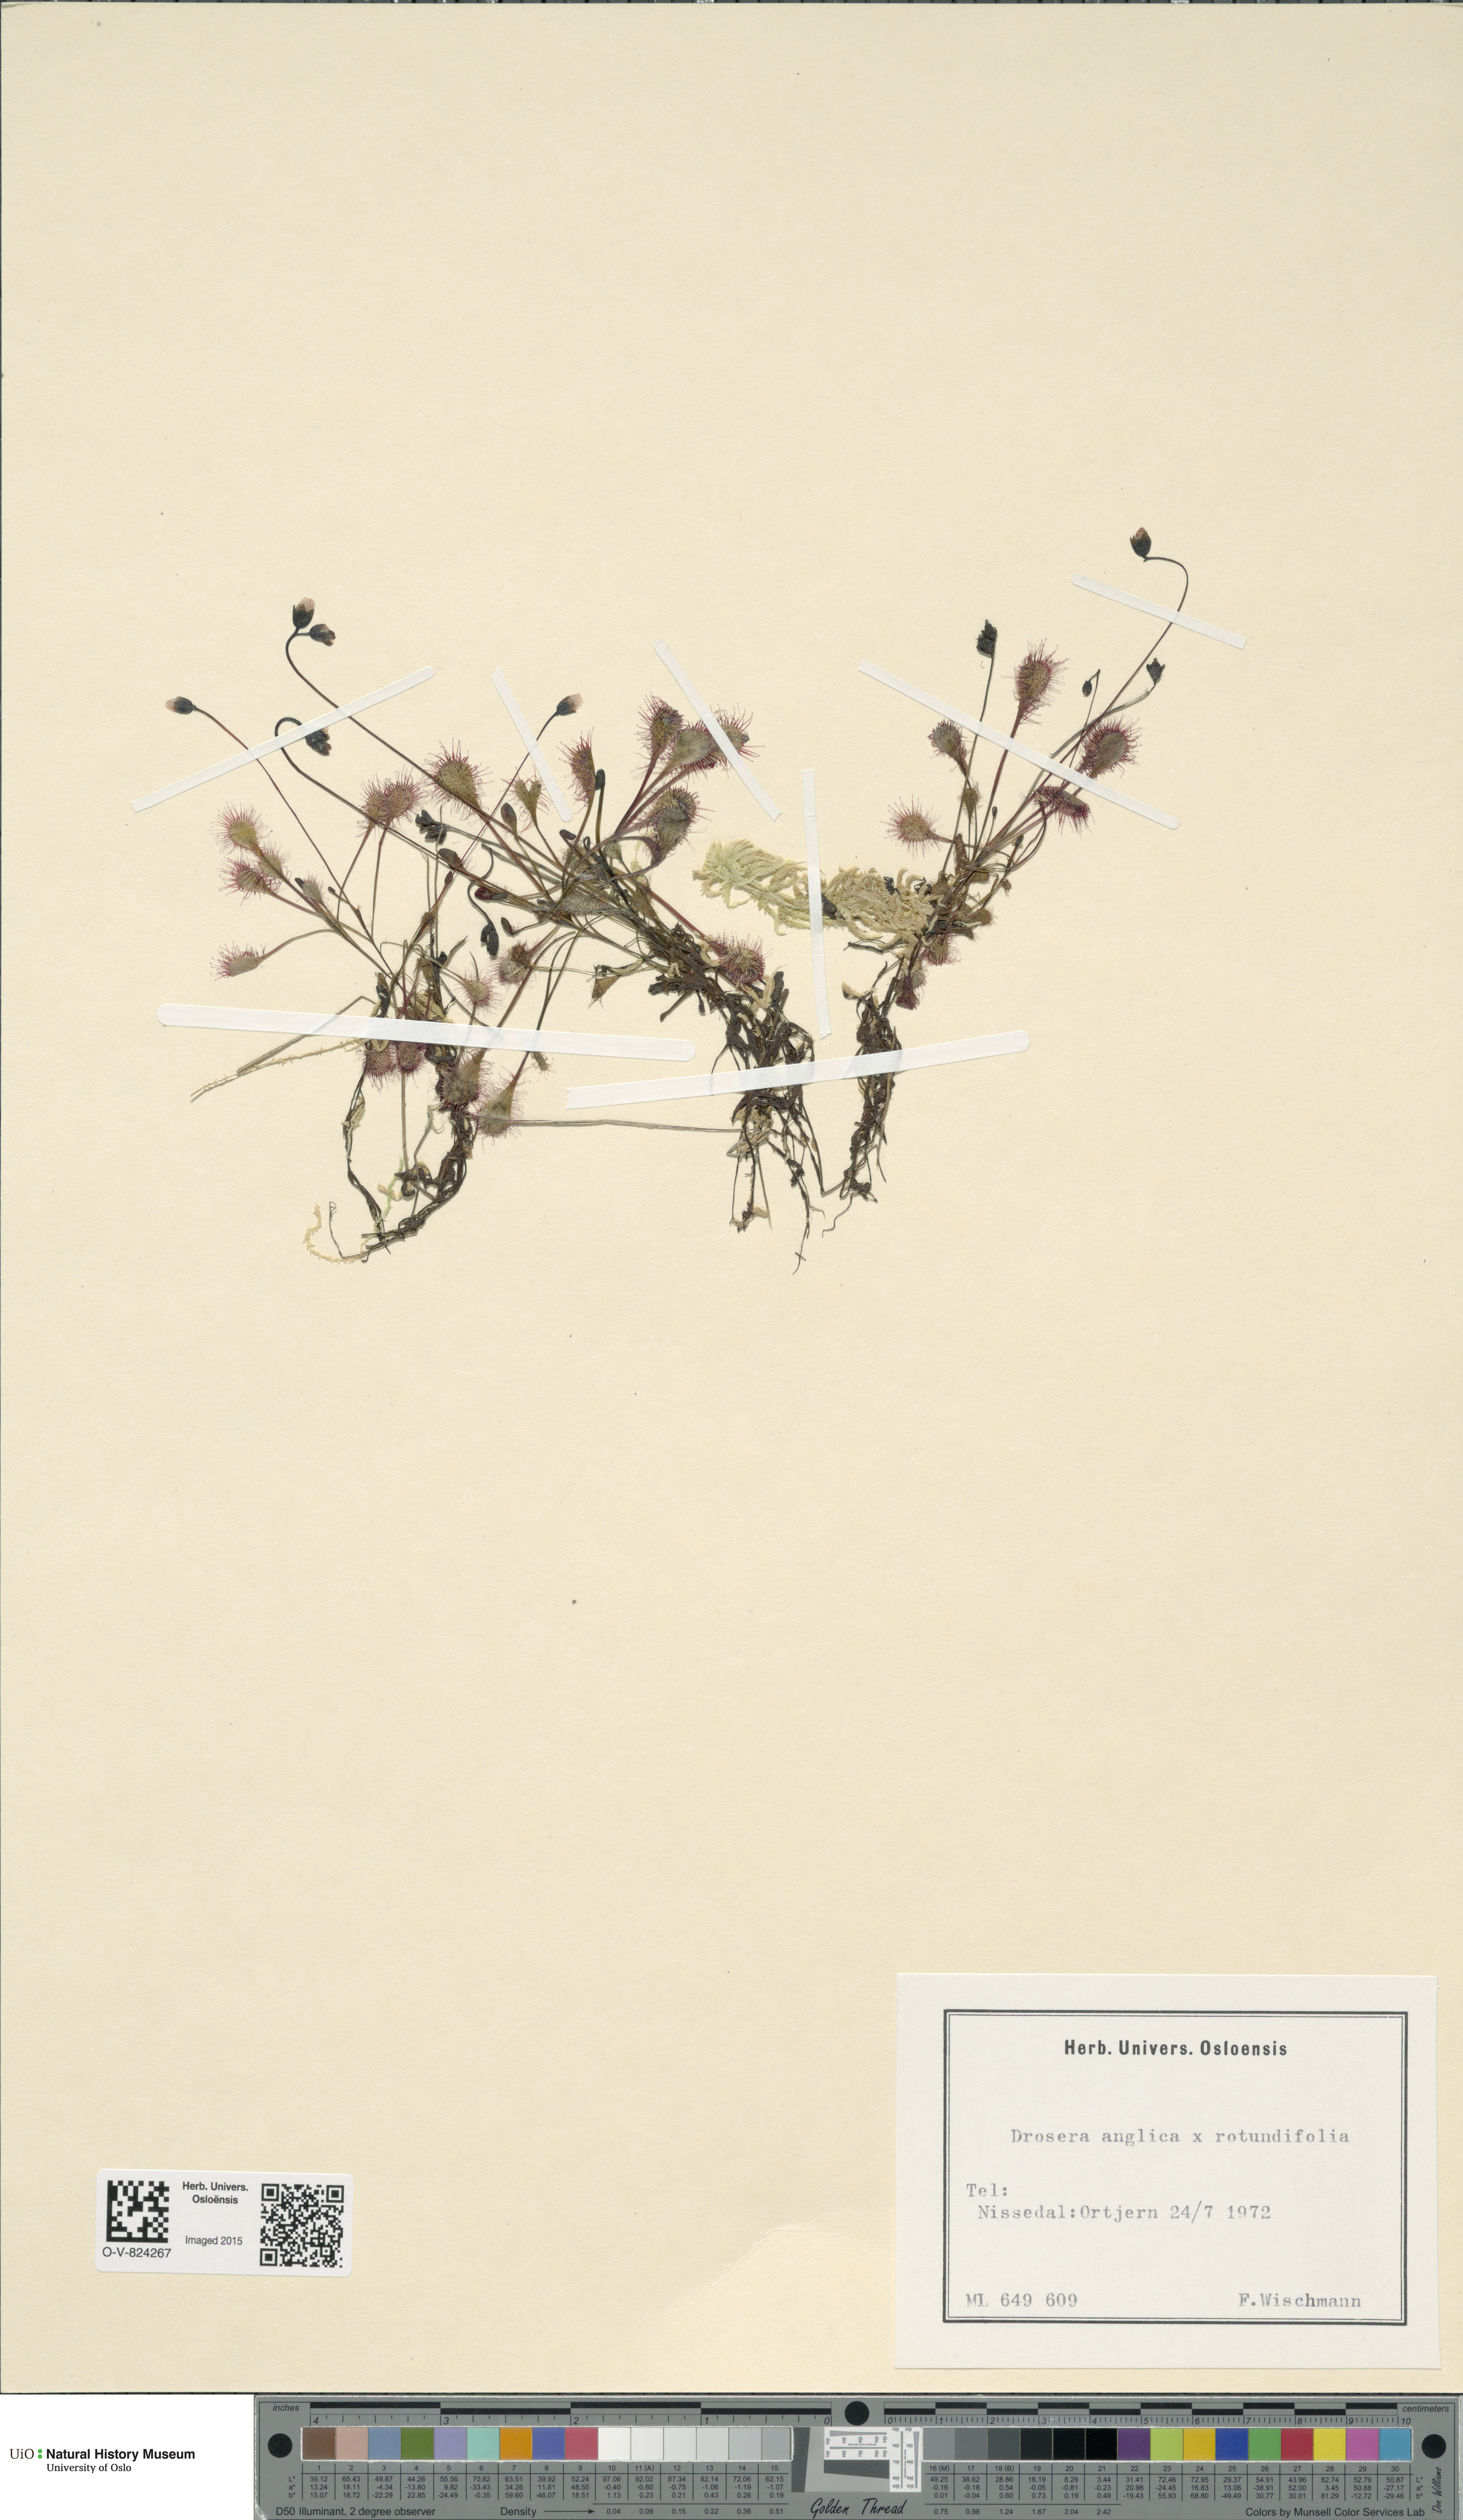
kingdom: Plantae
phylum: Tracheophyta
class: Magnoliopsida
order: Caryophyllales
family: Droseraceae
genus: Drosera
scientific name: Drosera
